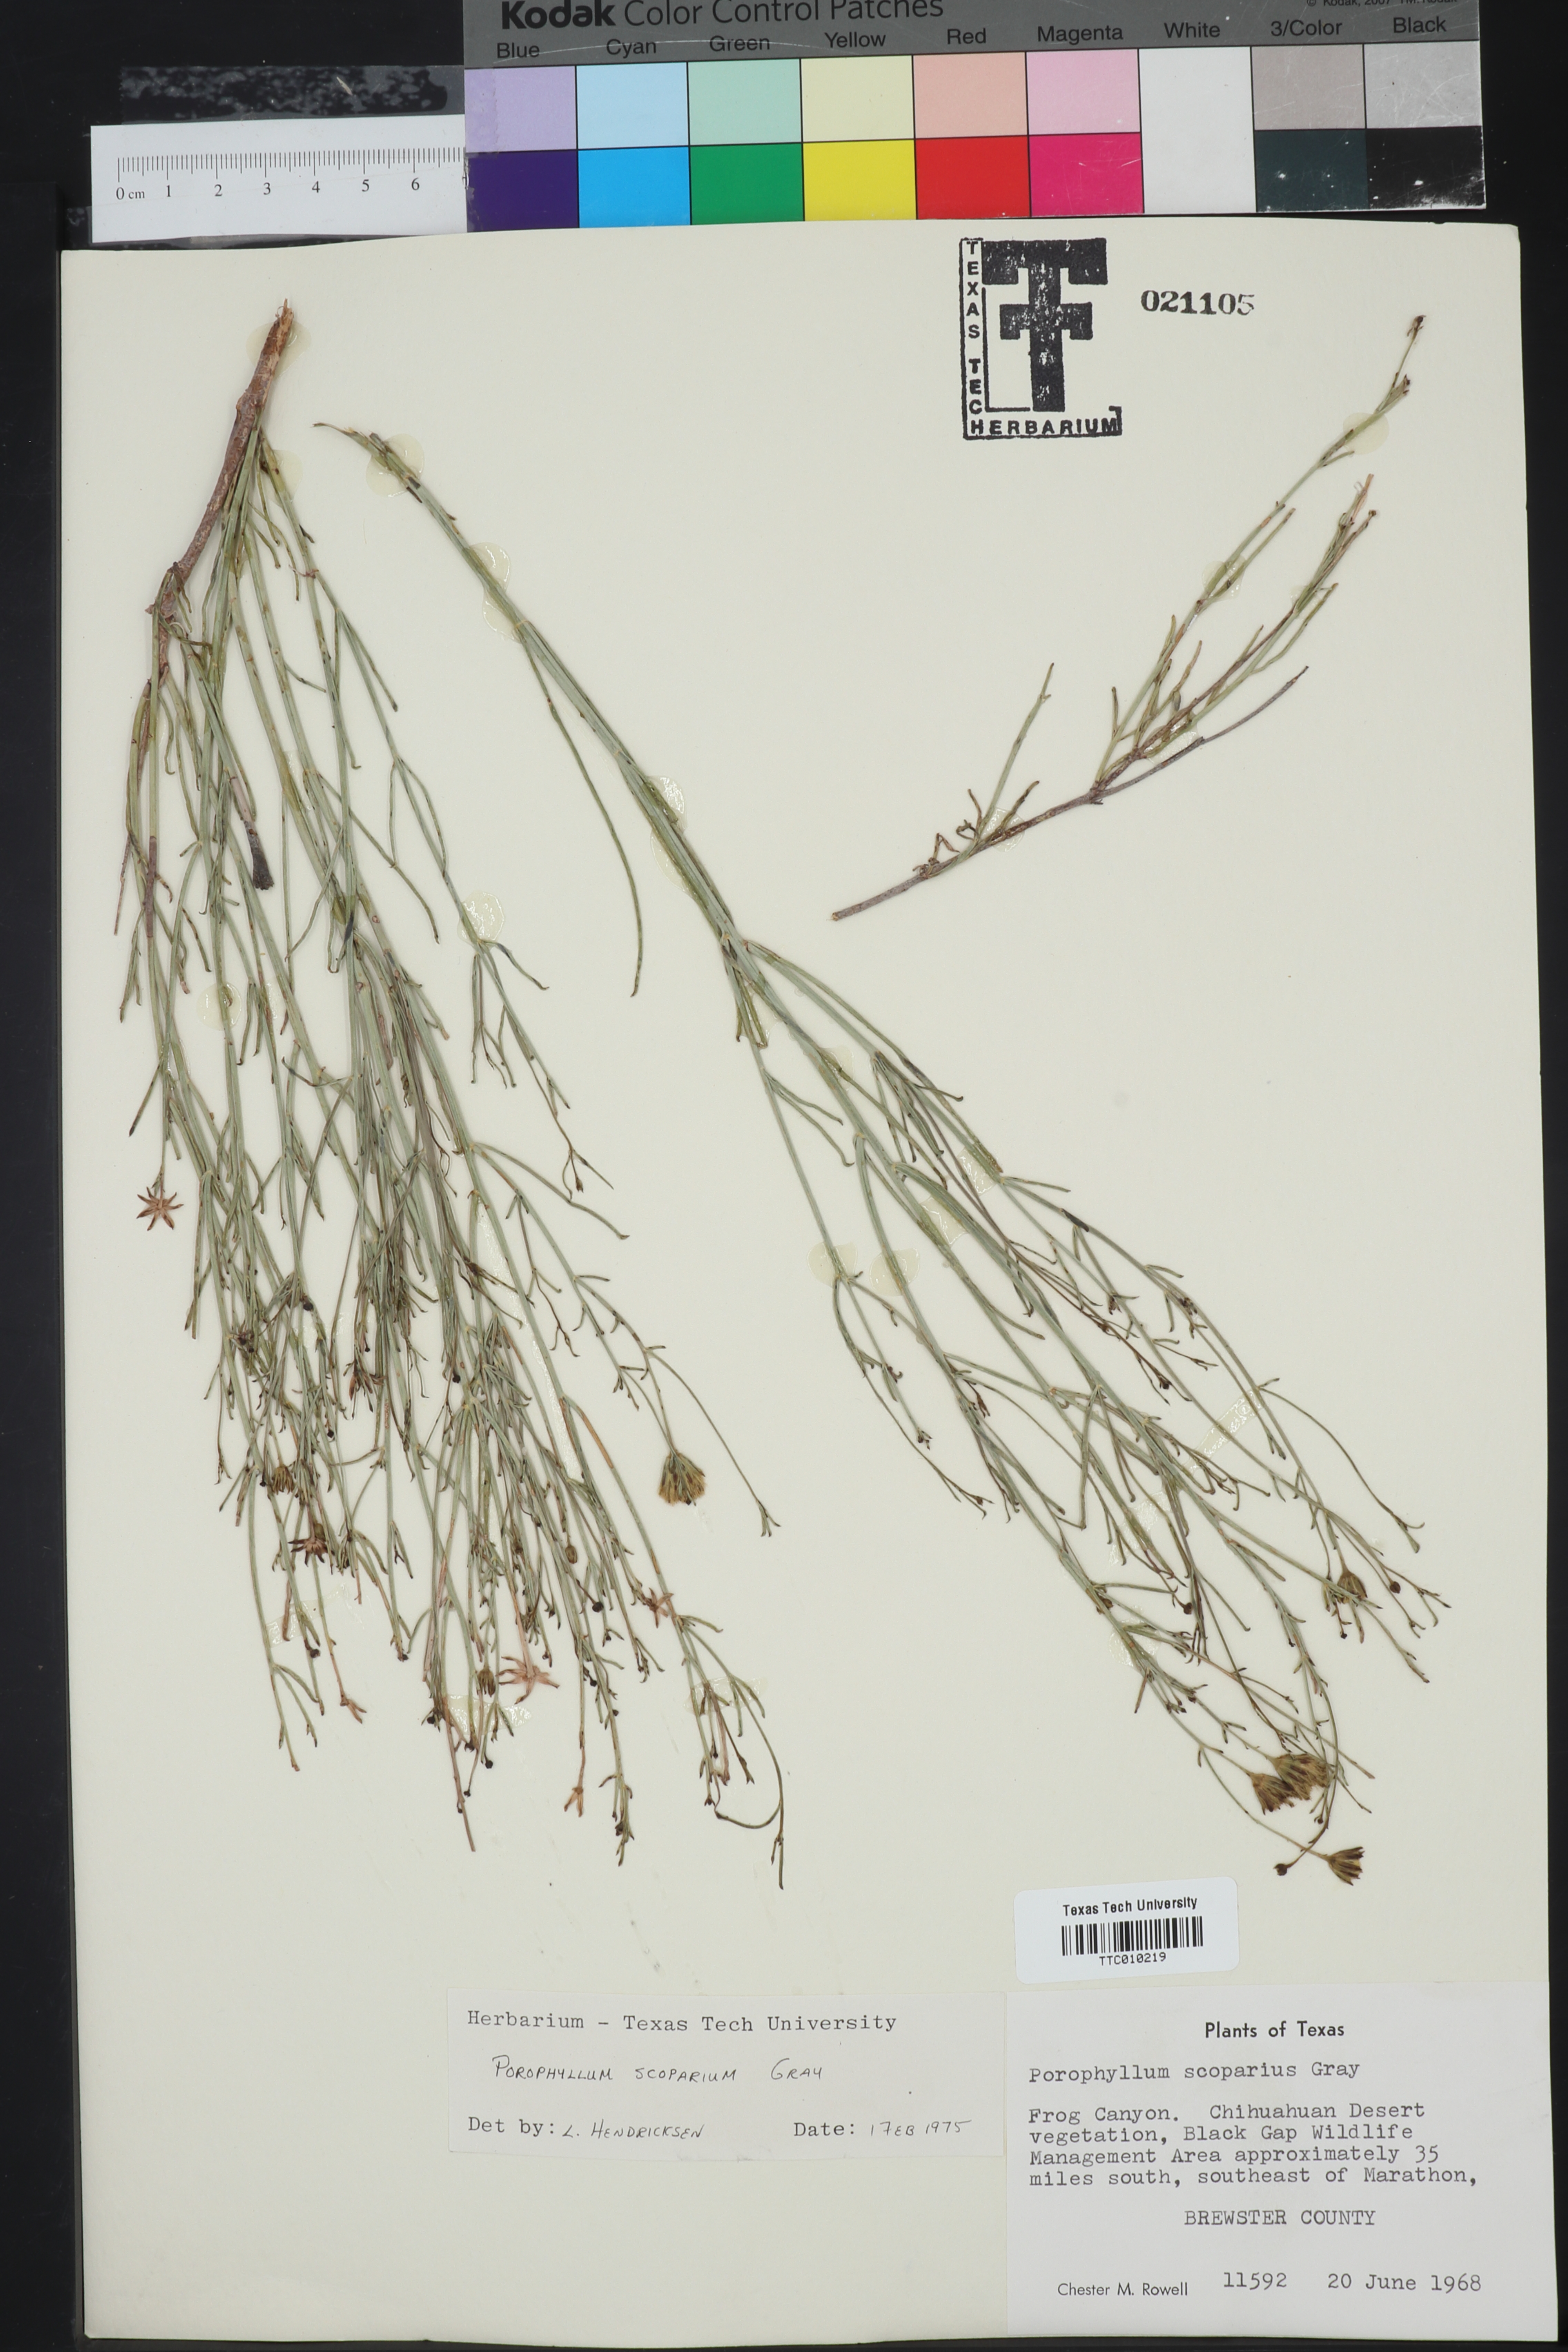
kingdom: Plantae
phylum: Tracheophyta
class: Magnoliopsida
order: Asterales
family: Asteraceae
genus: Porophyllum
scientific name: Porophyllum scoparium
